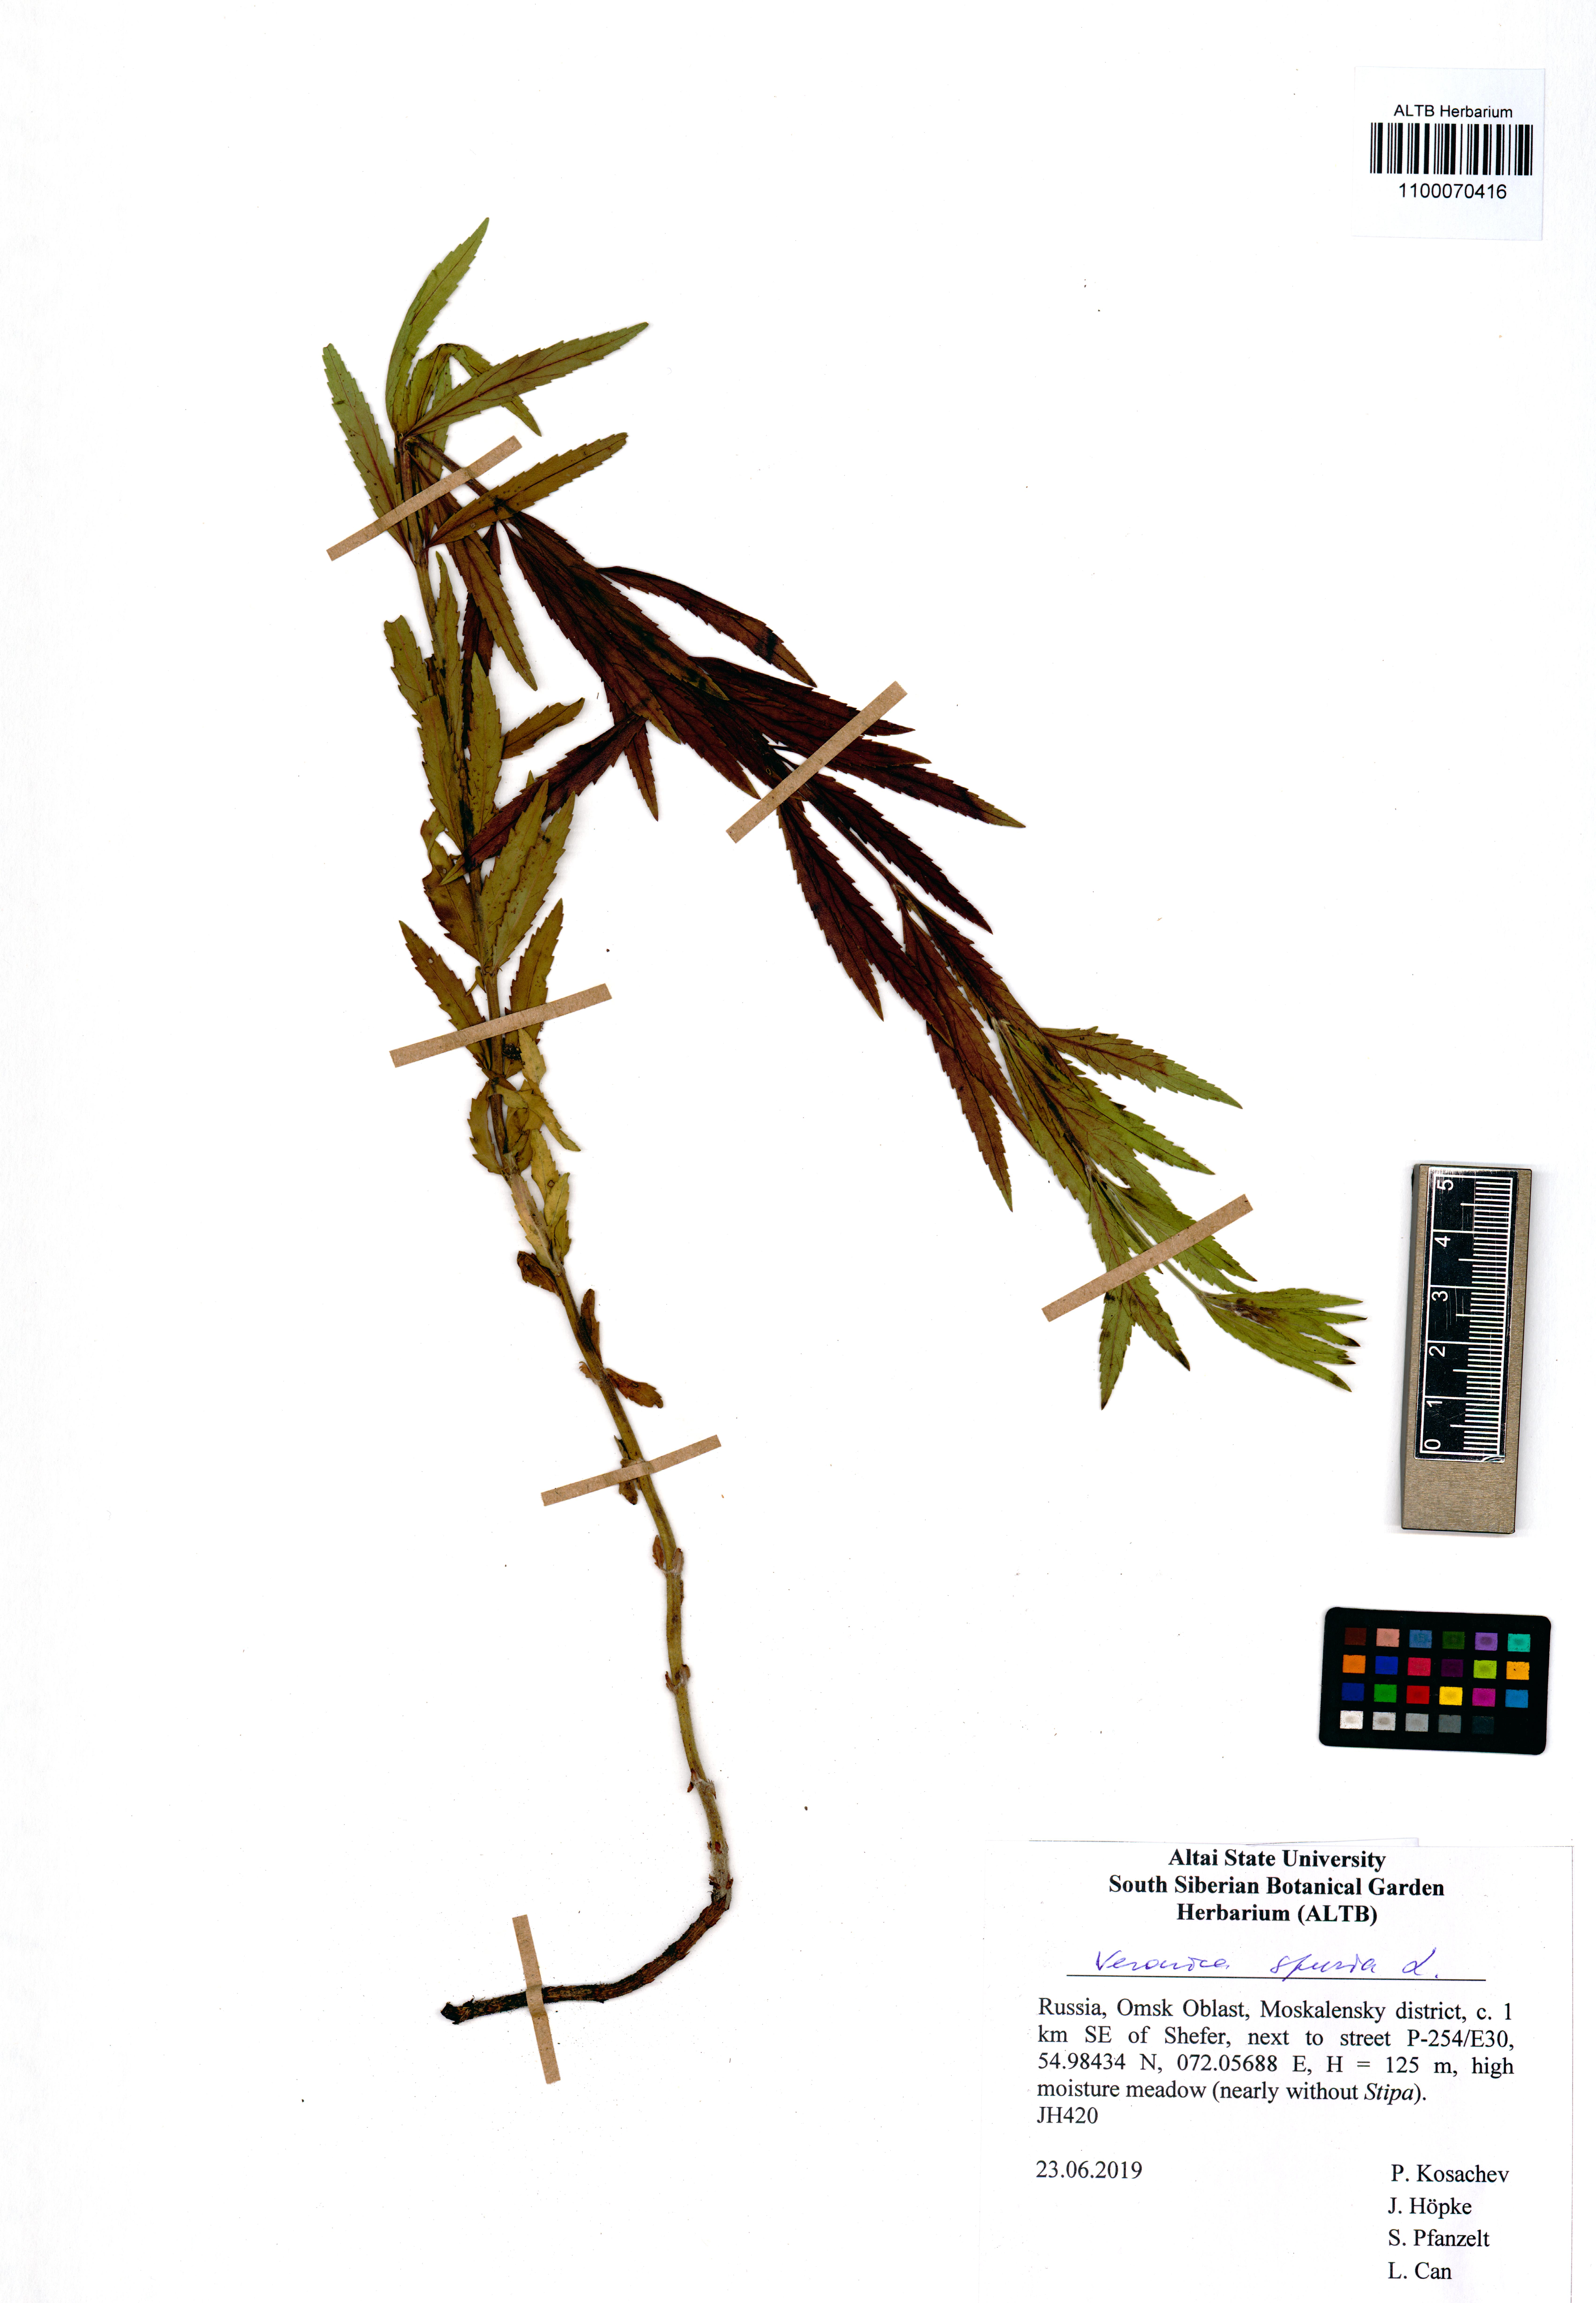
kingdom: Plantae
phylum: Tracheophyta
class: Magnoliopsida
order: Lamiales
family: Plantaginaceae
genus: Veronica
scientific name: Veronica spuria
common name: Bastard speedwell
